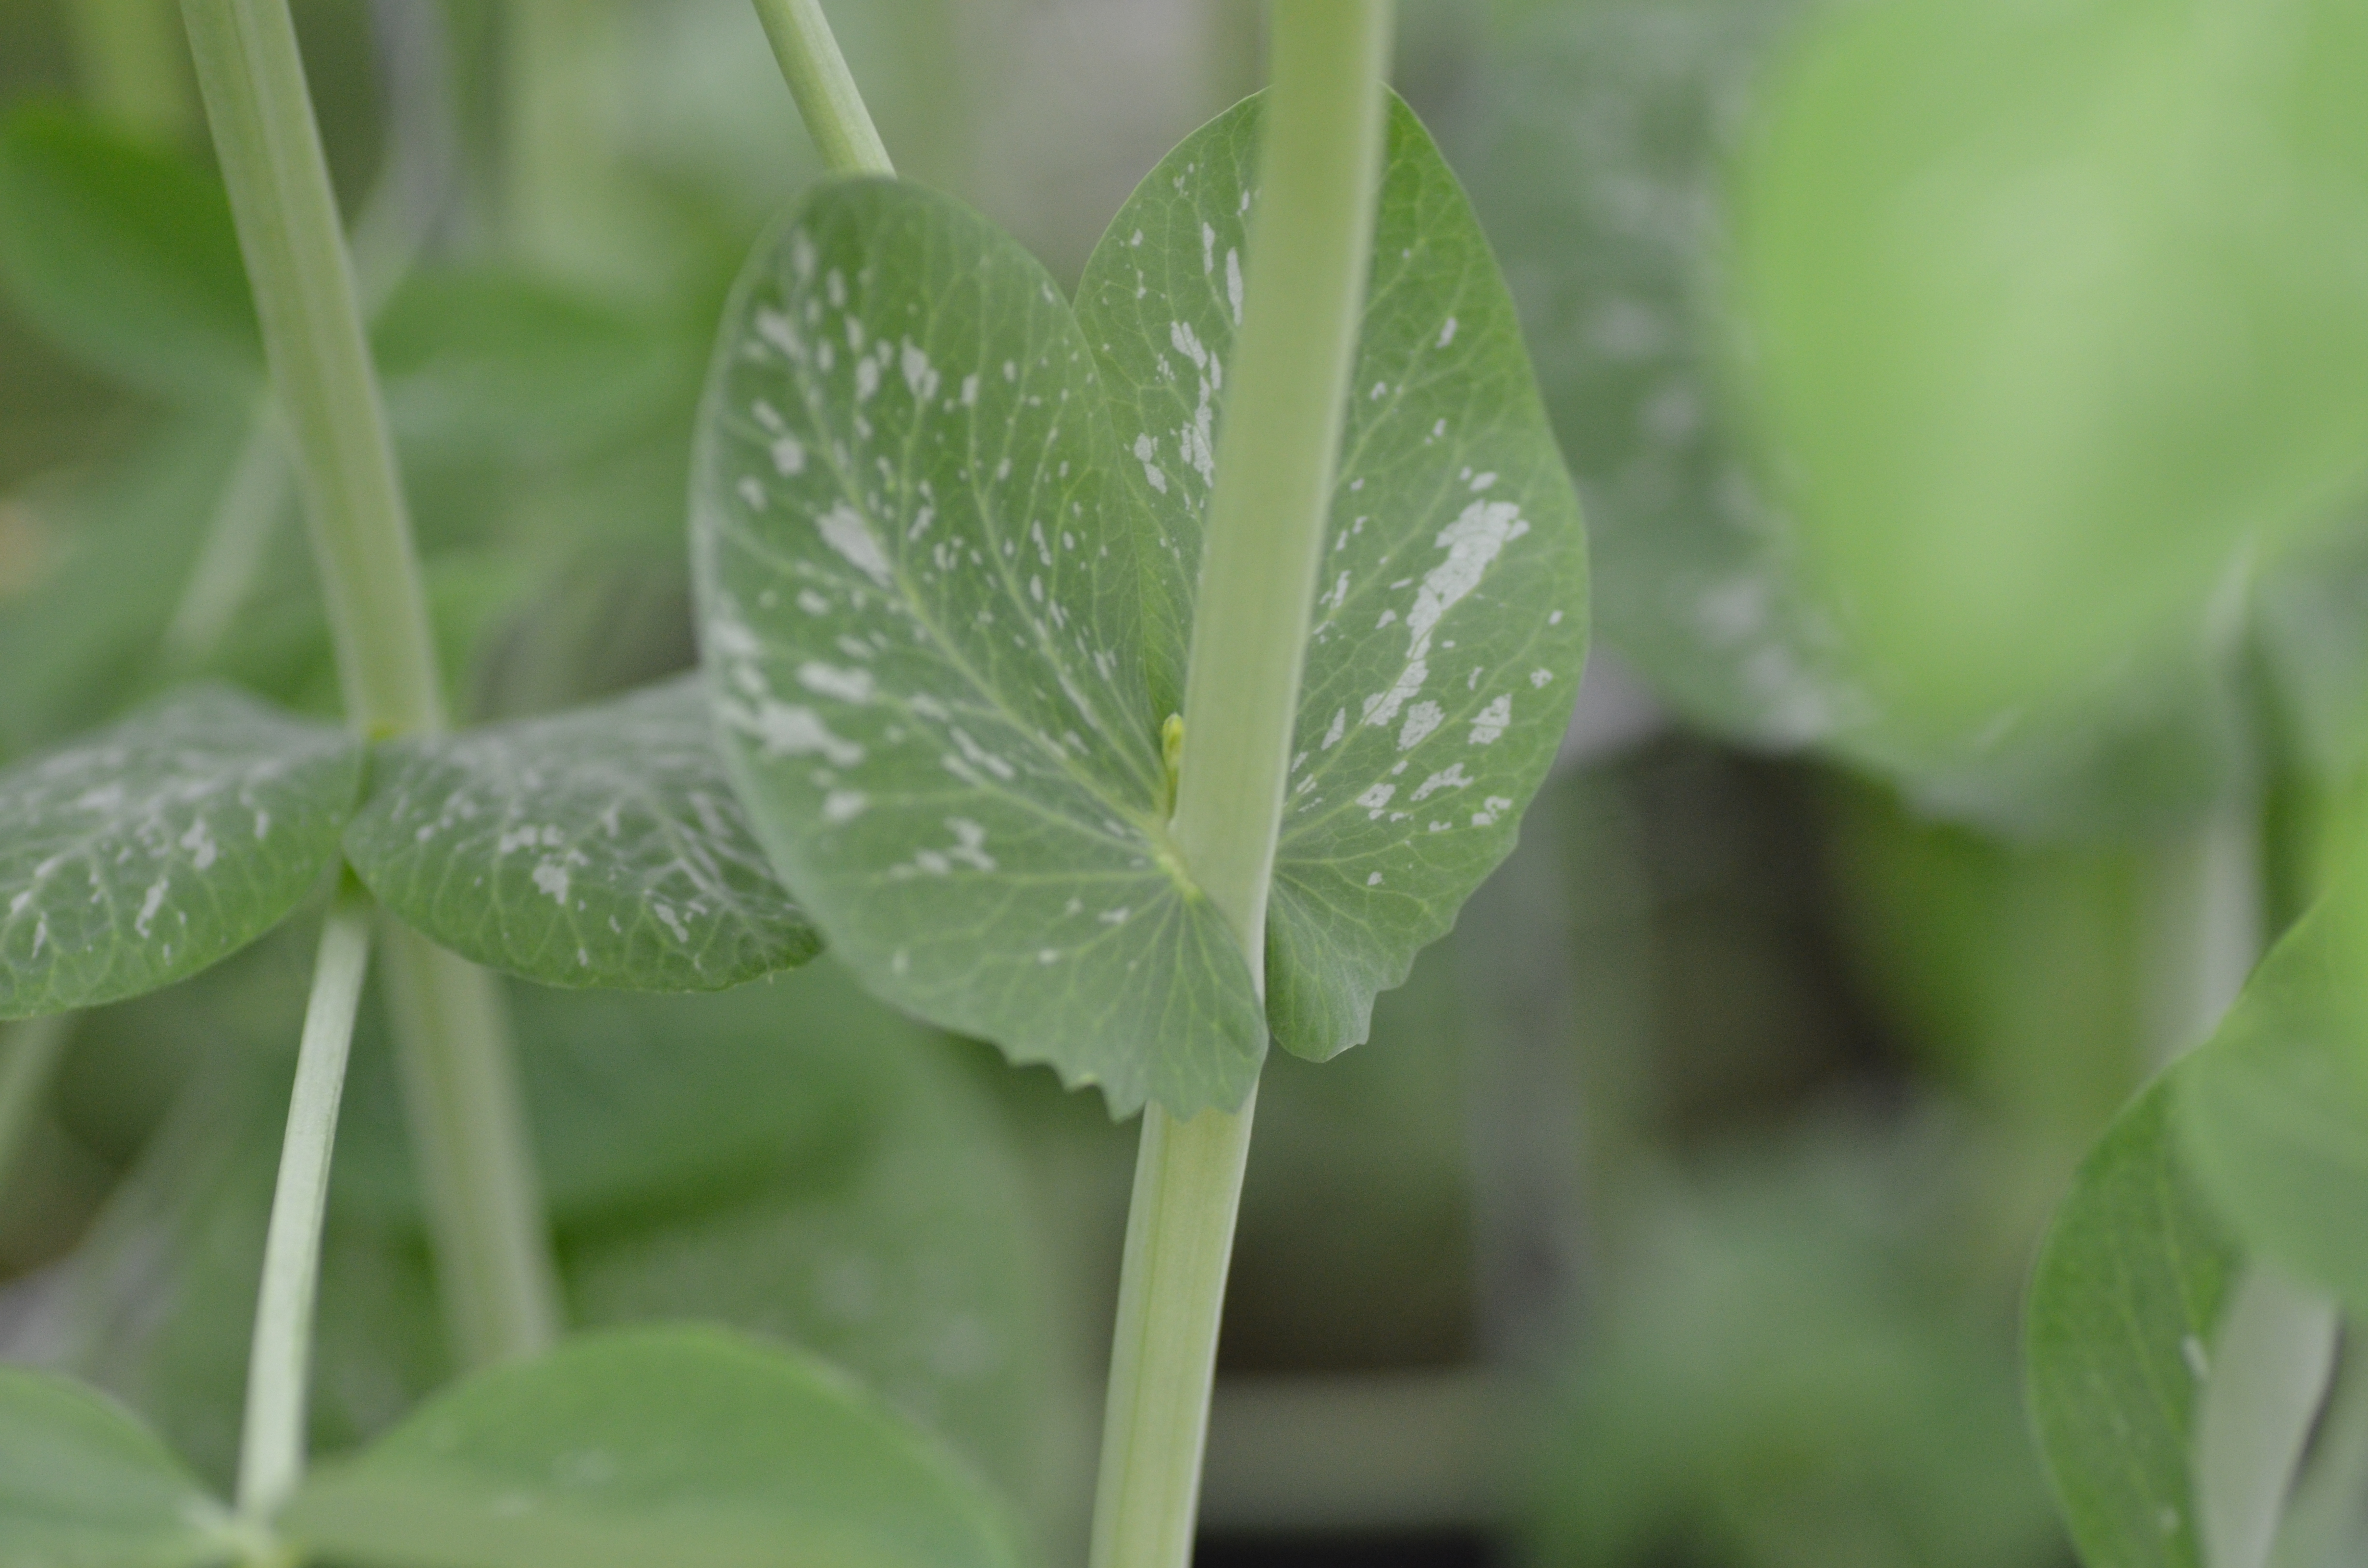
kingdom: Plantae
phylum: Tracheophyta
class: Magnoliopsida
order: Fabales
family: Fabaceae
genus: Lathyrus
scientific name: Lathyrus oleraceus
